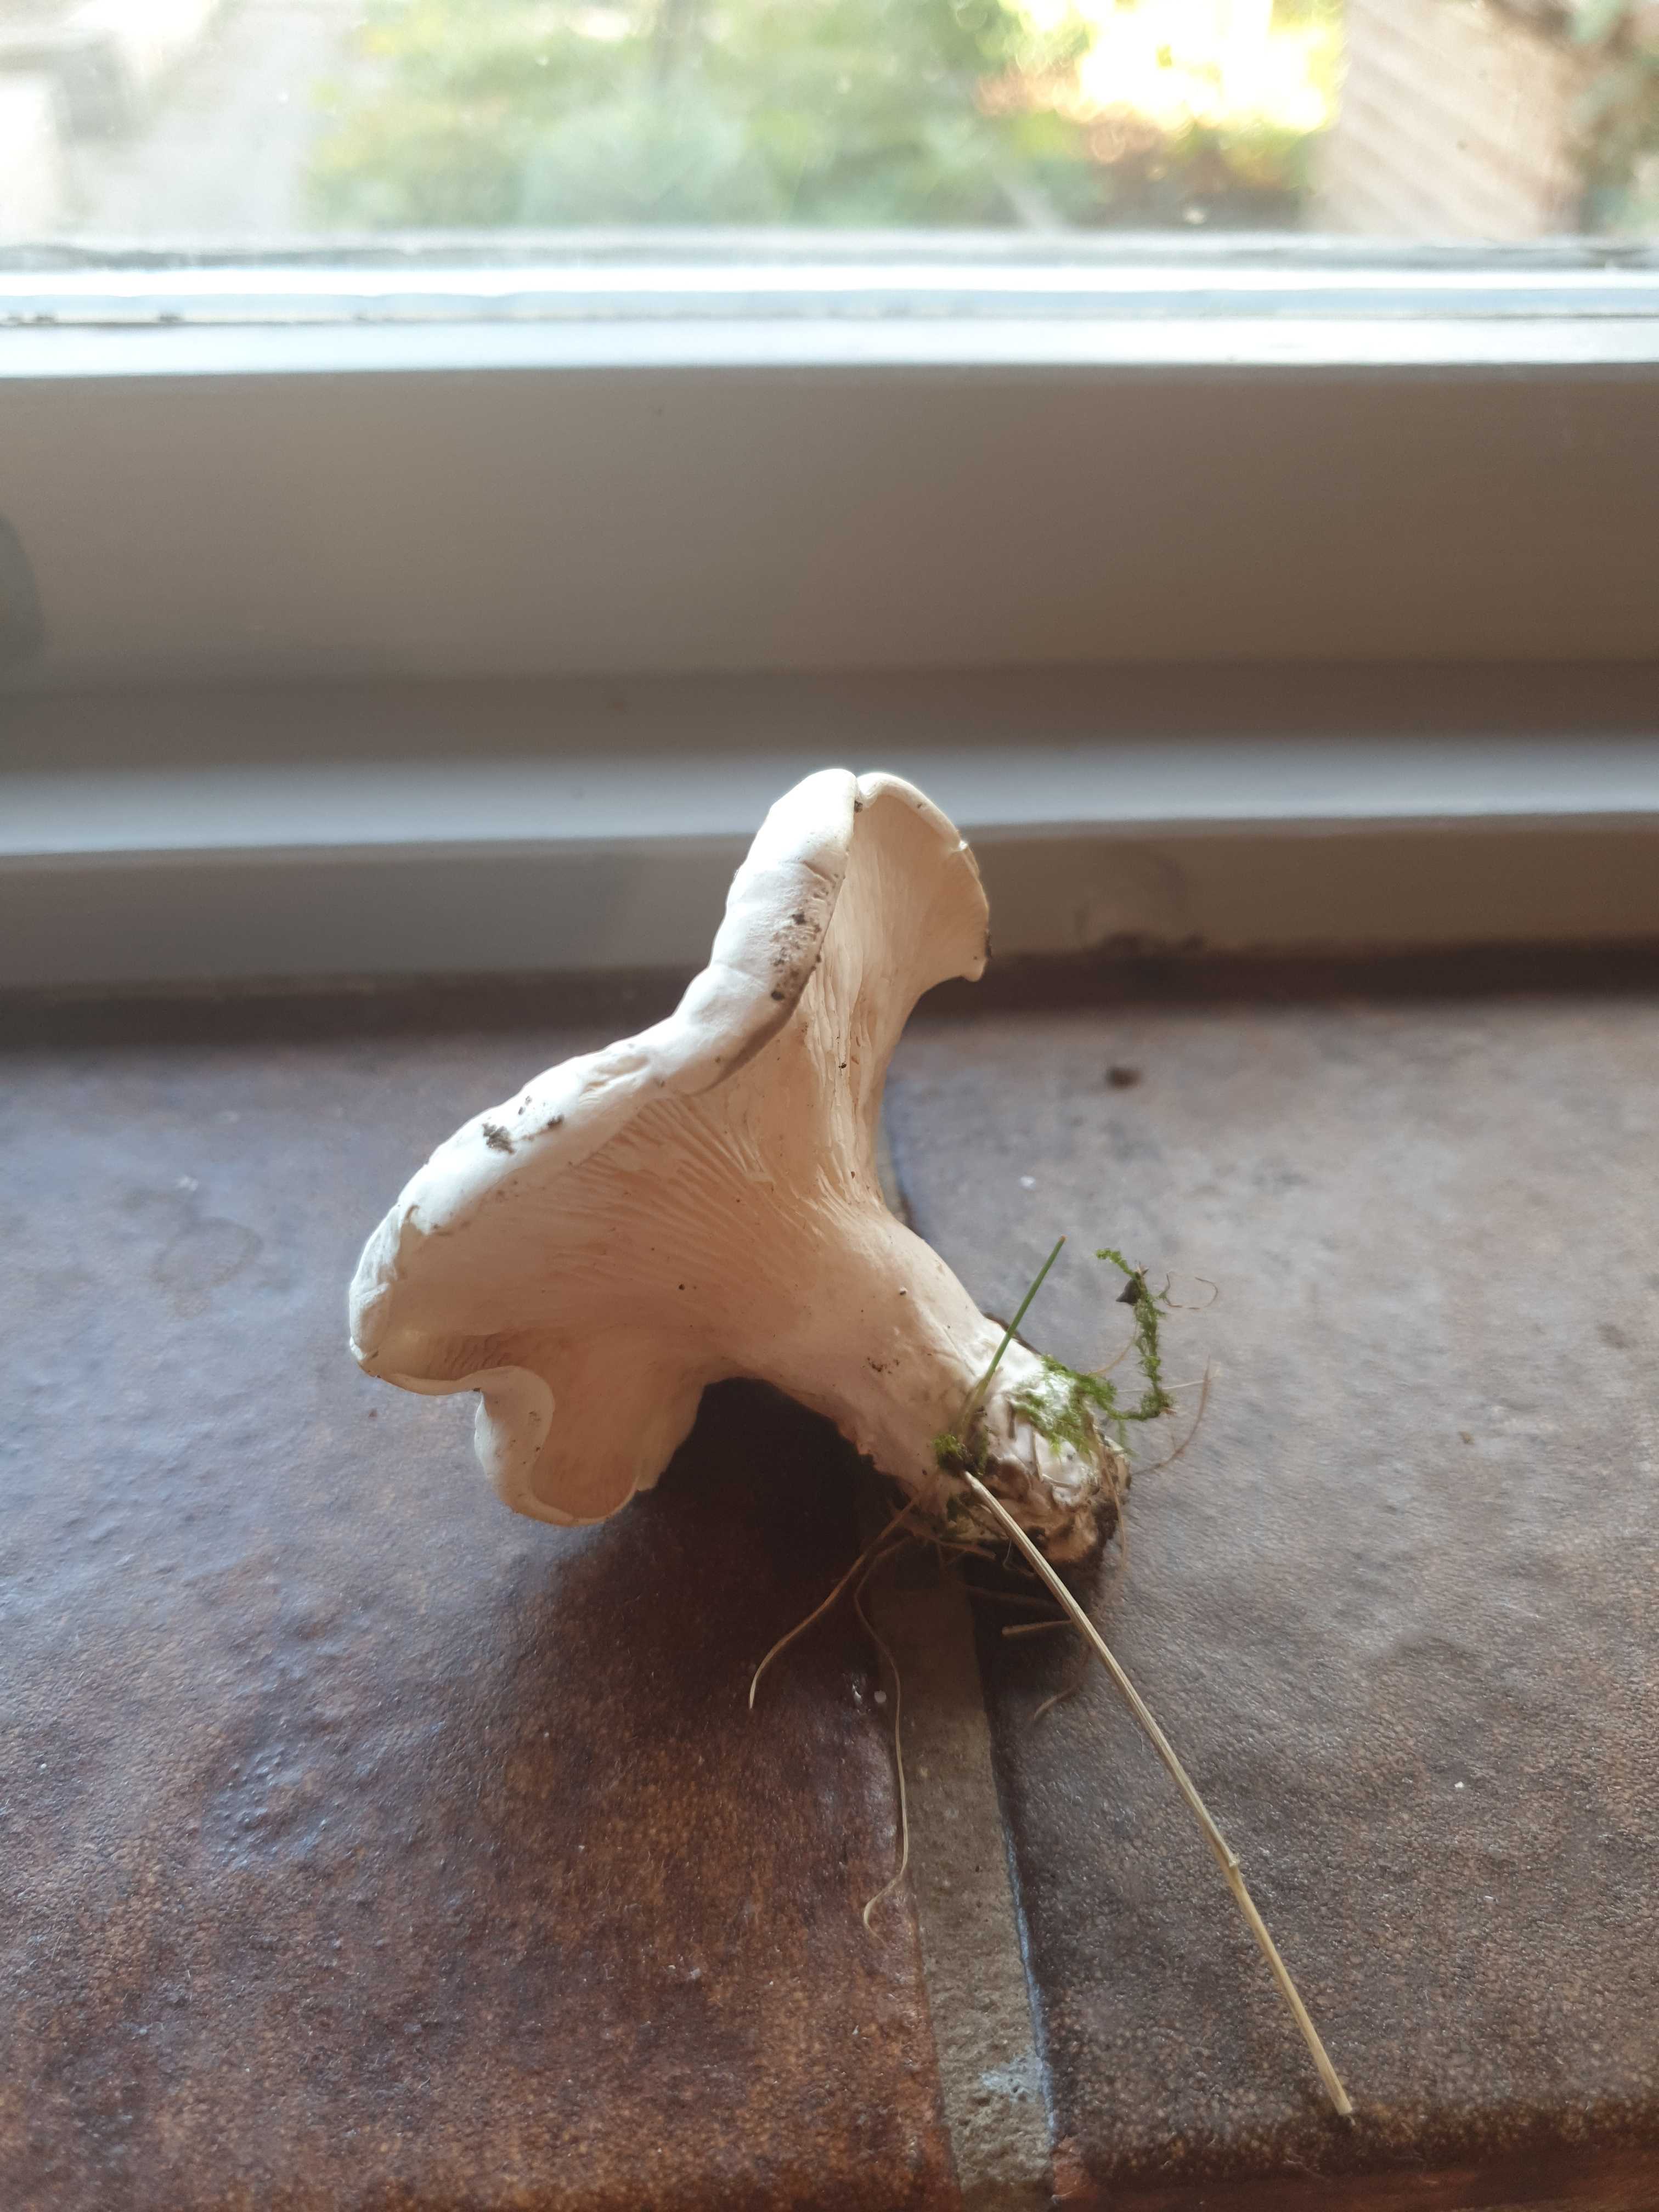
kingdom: Fungi
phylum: Basidiomycota
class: Agaricomycetes
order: Agaricales
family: Entolomataceae
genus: Clitopilus
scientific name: Clitopilus prunulus
